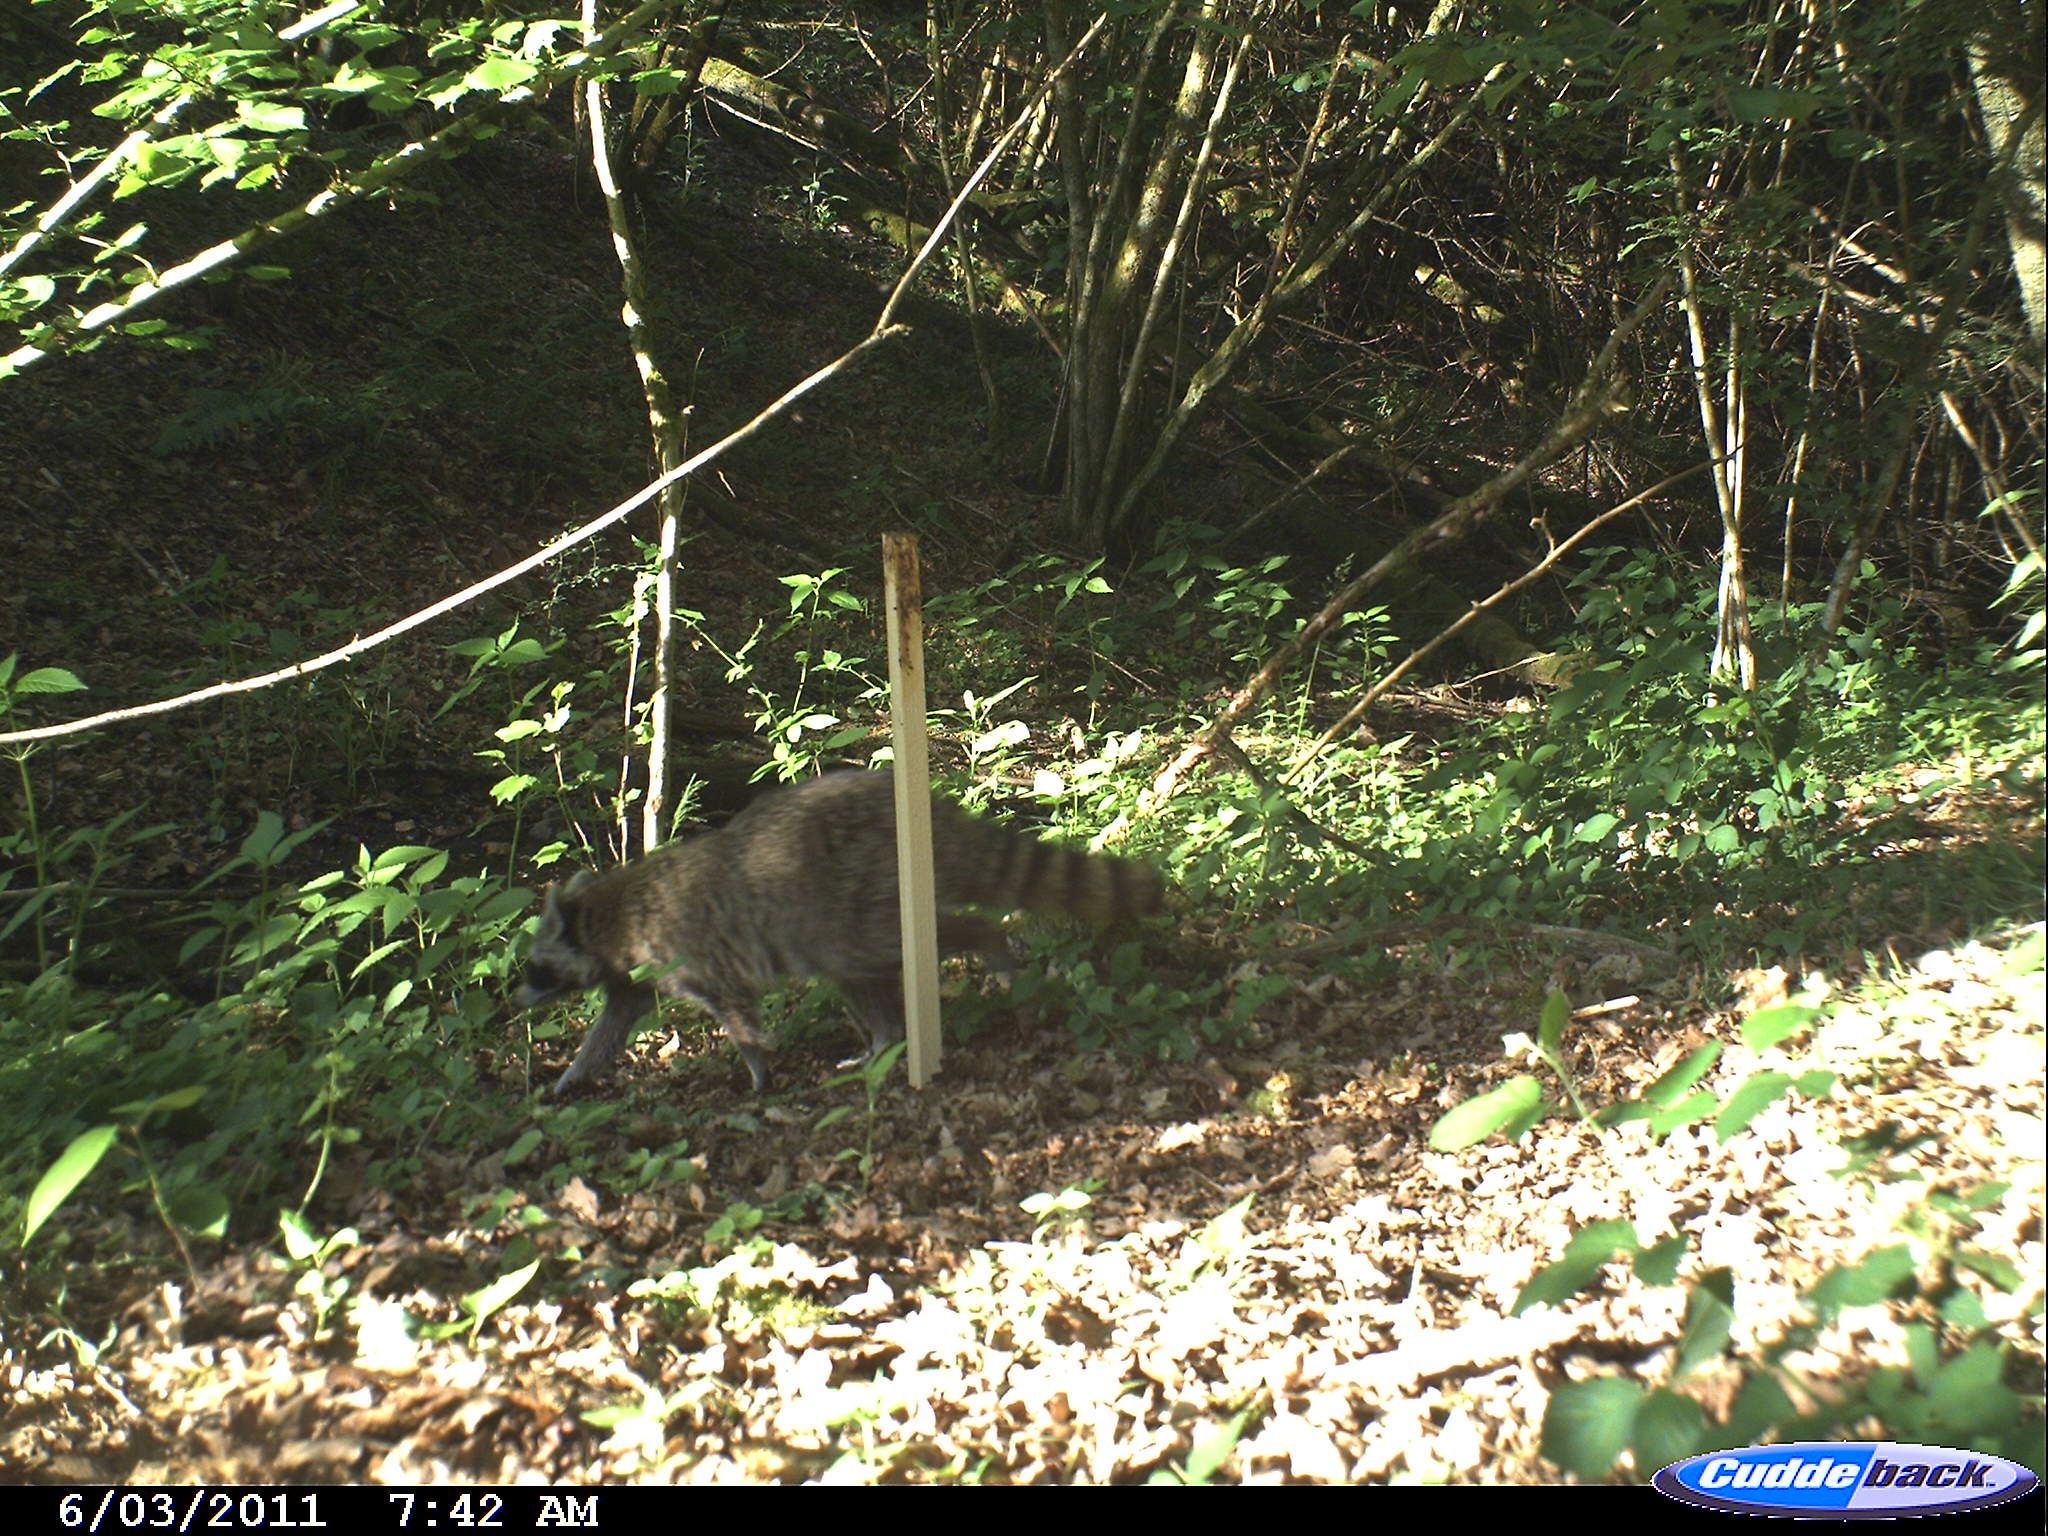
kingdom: Animalia
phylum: Chordata
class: Mammalia
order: Carnivora
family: Procyonidae
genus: Procyon
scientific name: Procyon lotor
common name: Raccoon
